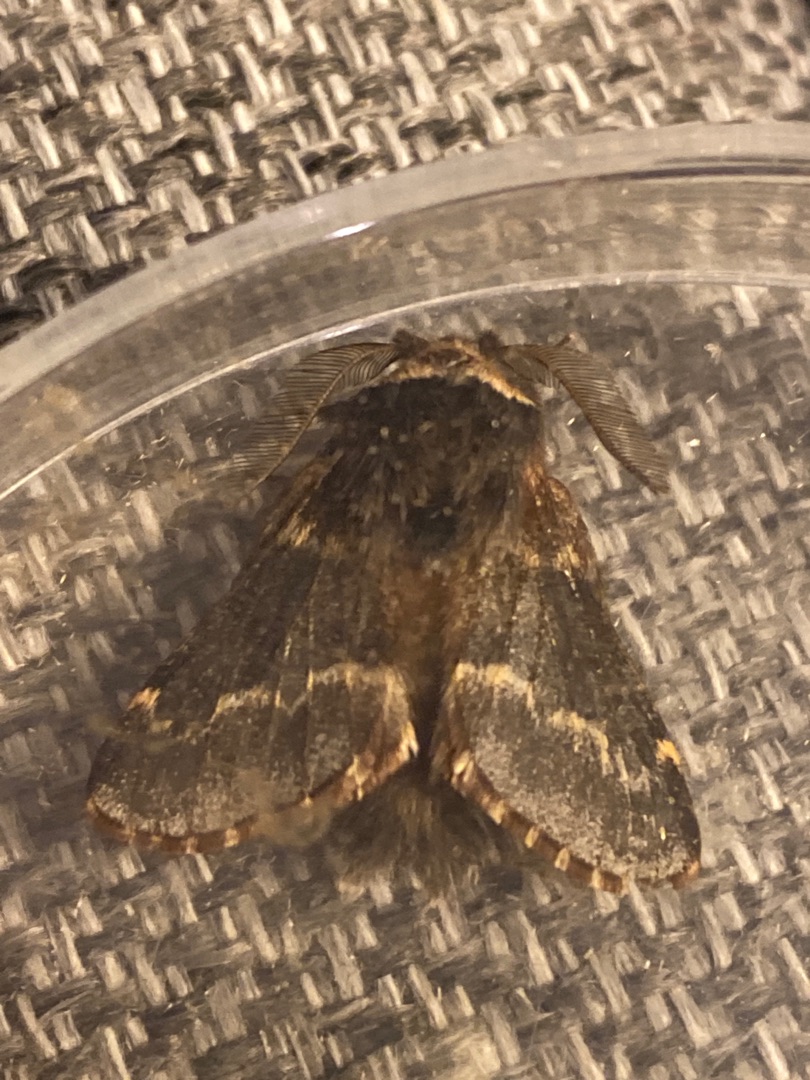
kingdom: Animalia
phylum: Arthropoda
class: Insecta
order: Lepidoptera
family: Lasiocampidae
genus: Poecilocampa
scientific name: Poecilocampa populi
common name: Poppelspinder
